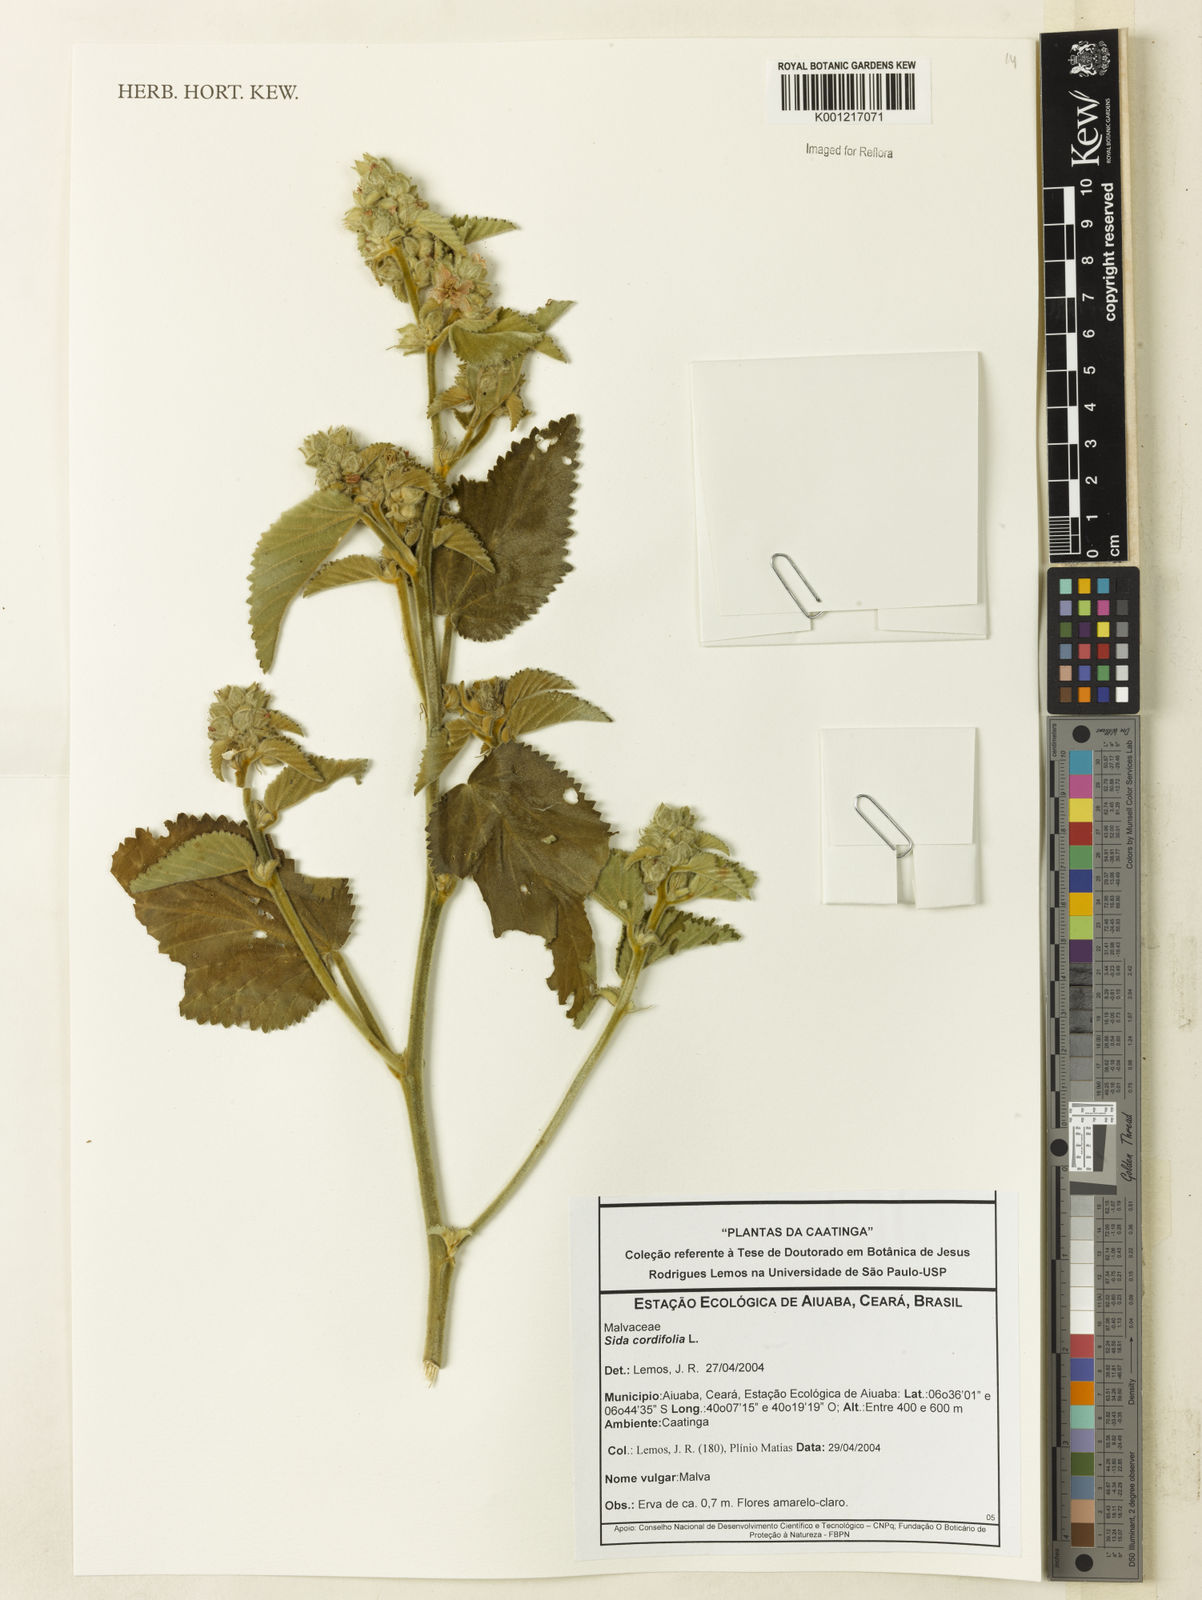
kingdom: Plantae
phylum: Tracheophyta
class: Magnoliopsida
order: Malvales
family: Malvaceae
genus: Sida
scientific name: Sida cordifolia
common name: Ilima
